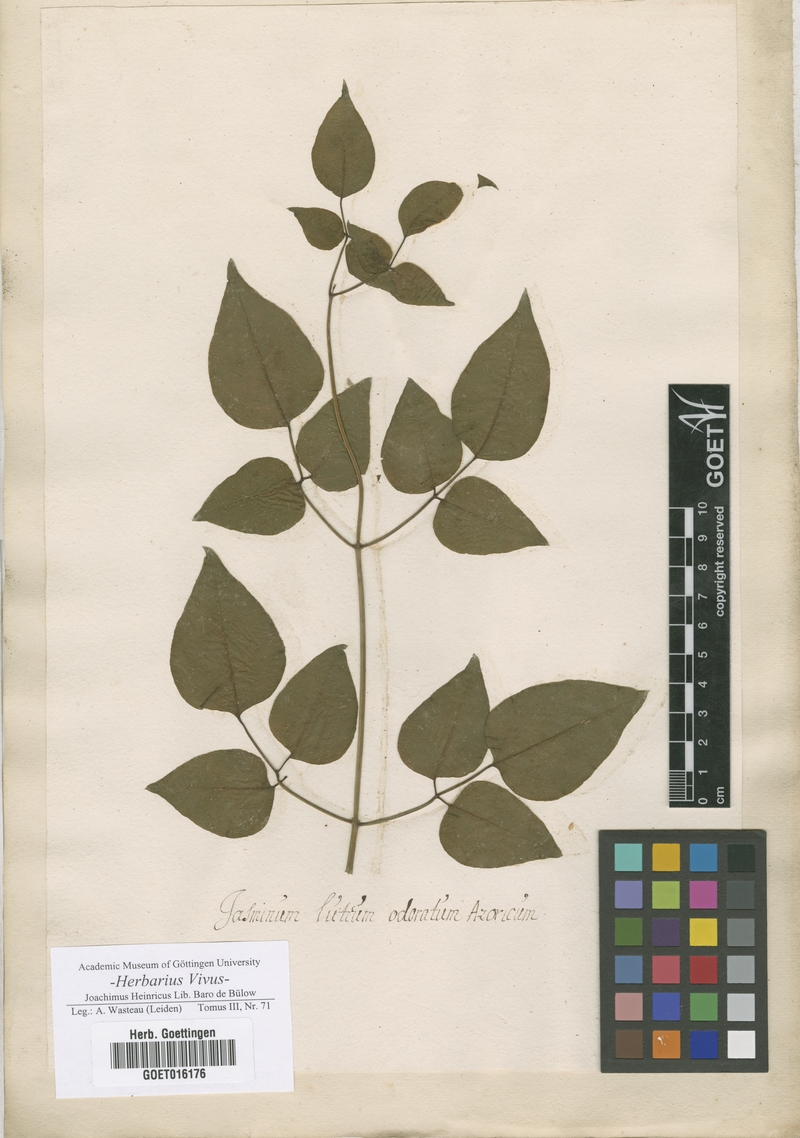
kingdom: Plantae
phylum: Tracheophyta
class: Magnoliopsida
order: Lamiales
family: Oleaceae
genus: Jasminum
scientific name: Jasminum
